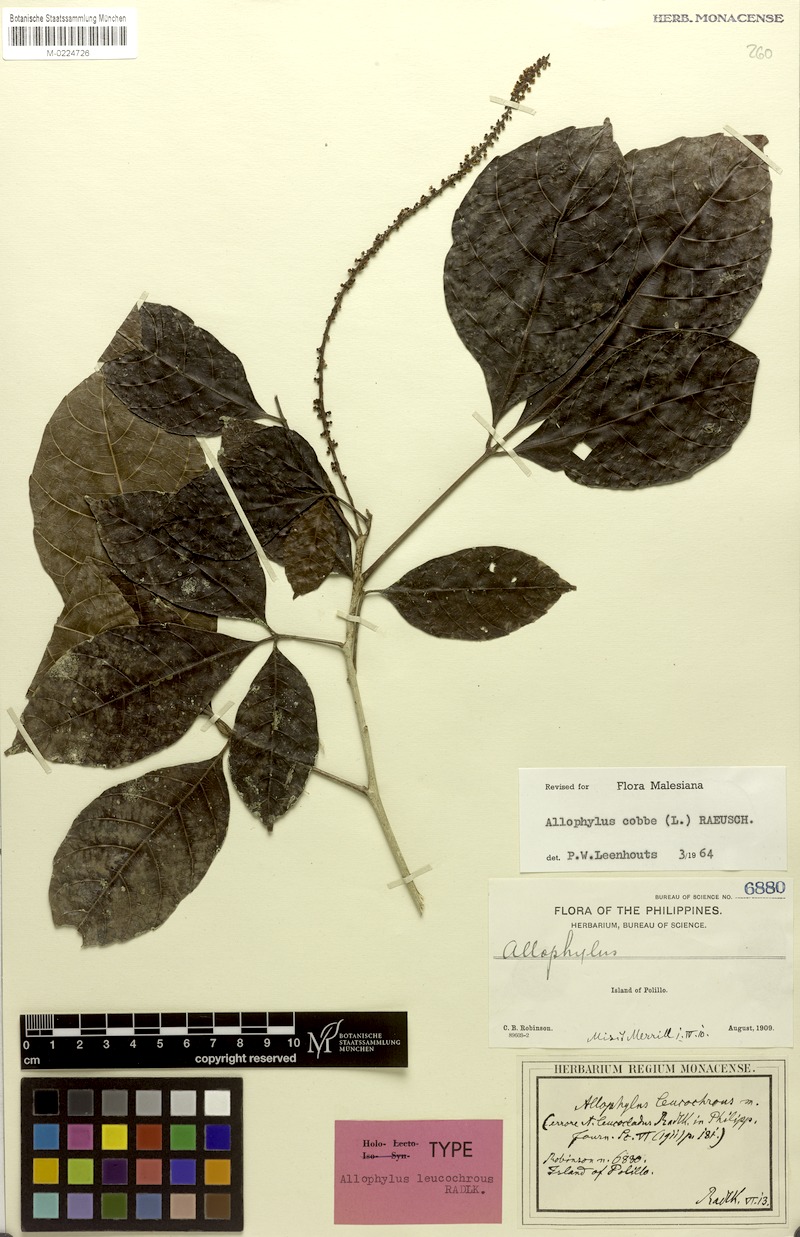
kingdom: Plantae
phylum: Tracheophyta
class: Magnoliopsida
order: Sapindales
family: Sapindaceae
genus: Allophylus
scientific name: Allophylus leucochrous
